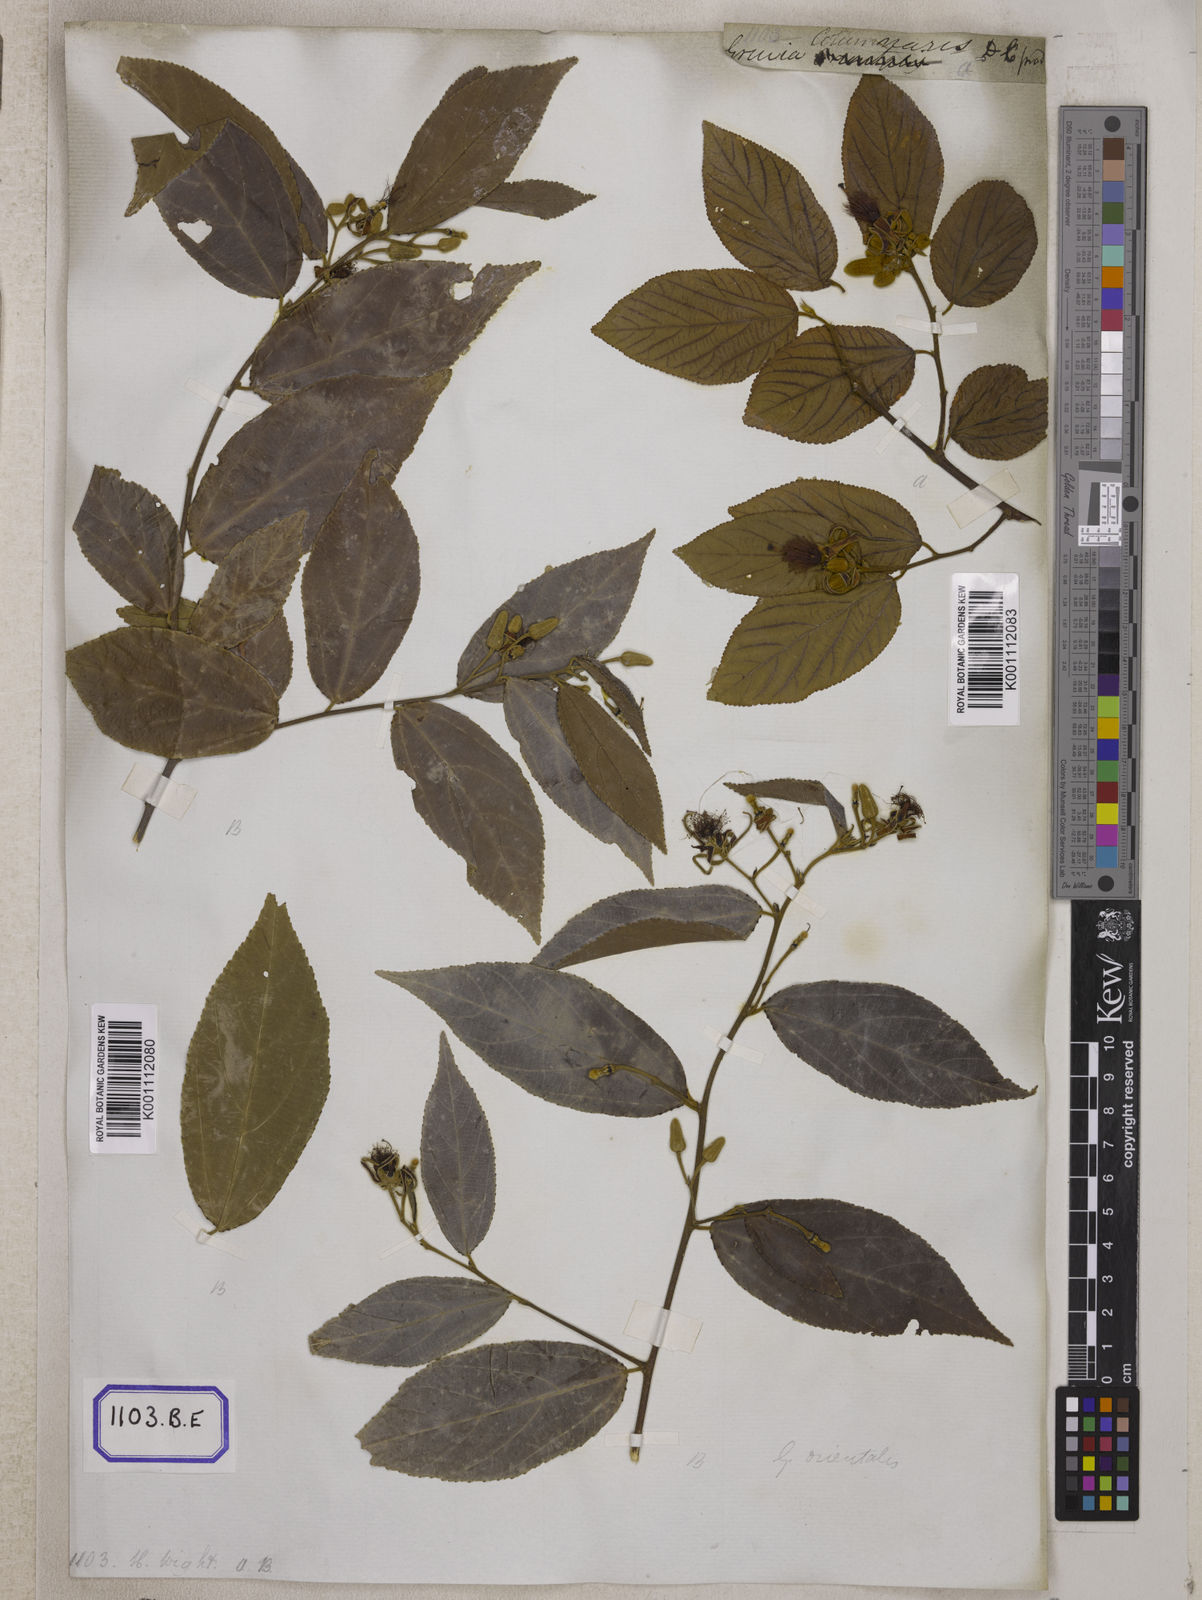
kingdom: Plantae
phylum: Tracheophyta
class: Magnoliopsida
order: Malvales
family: Malvaceae
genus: Grewia
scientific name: Grewia
